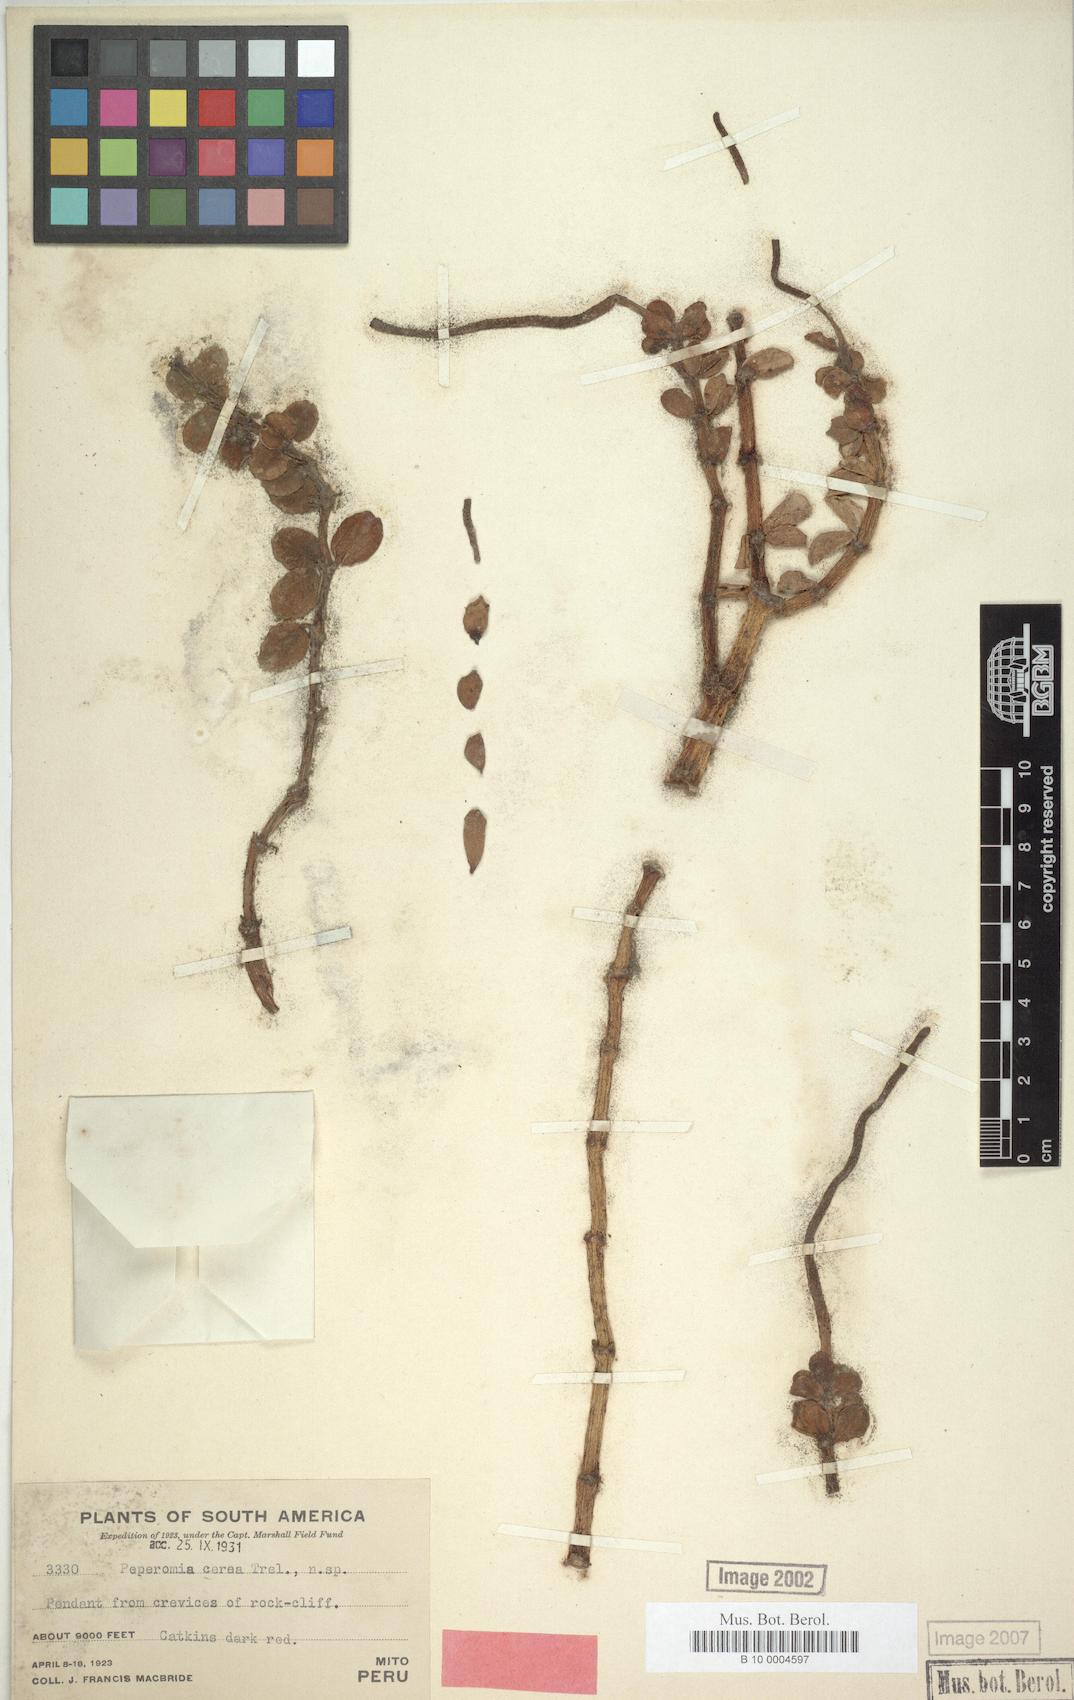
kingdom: Plantae
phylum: Tracheophyta
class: Magnoliopsida
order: Piperales
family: Piperaceae
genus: Peperomia
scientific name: Peperomia cerea
